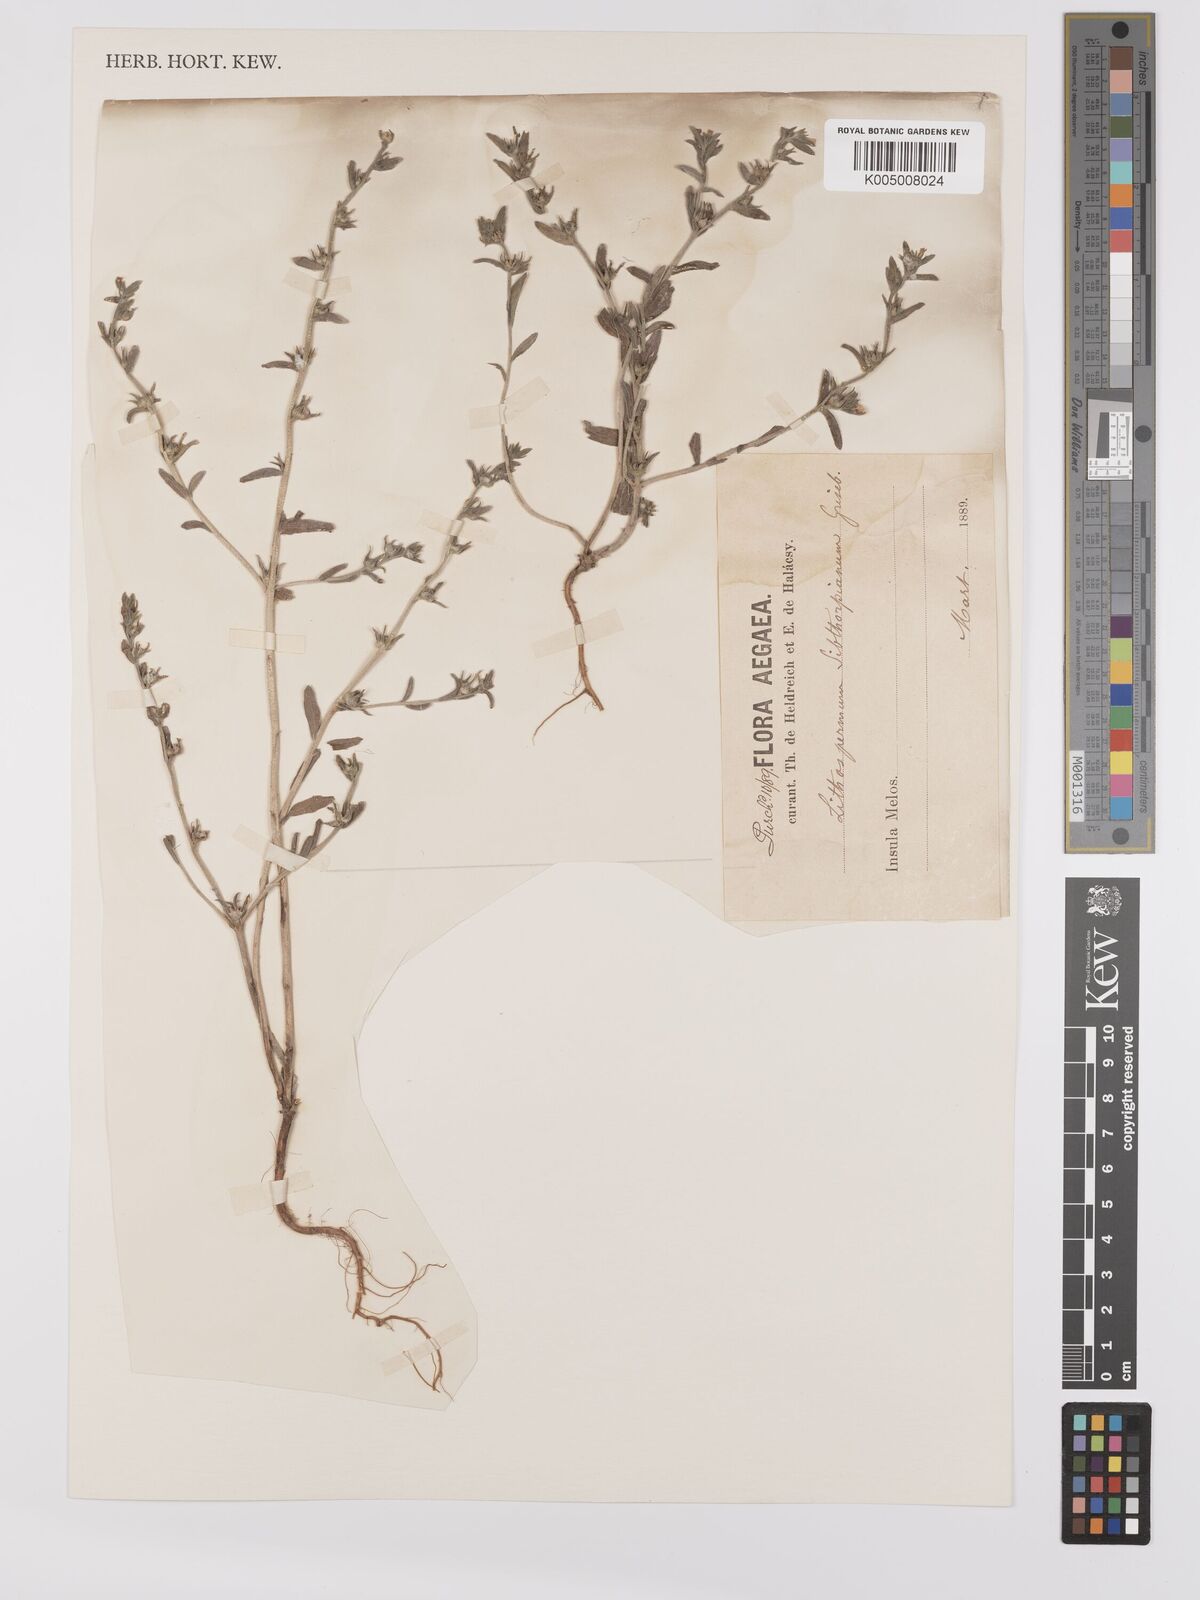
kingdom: Plantae
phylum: Tracheophyta
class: Magnoliopsida
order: Boraginales
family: Boraginaceae
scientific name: Boraginaceae
